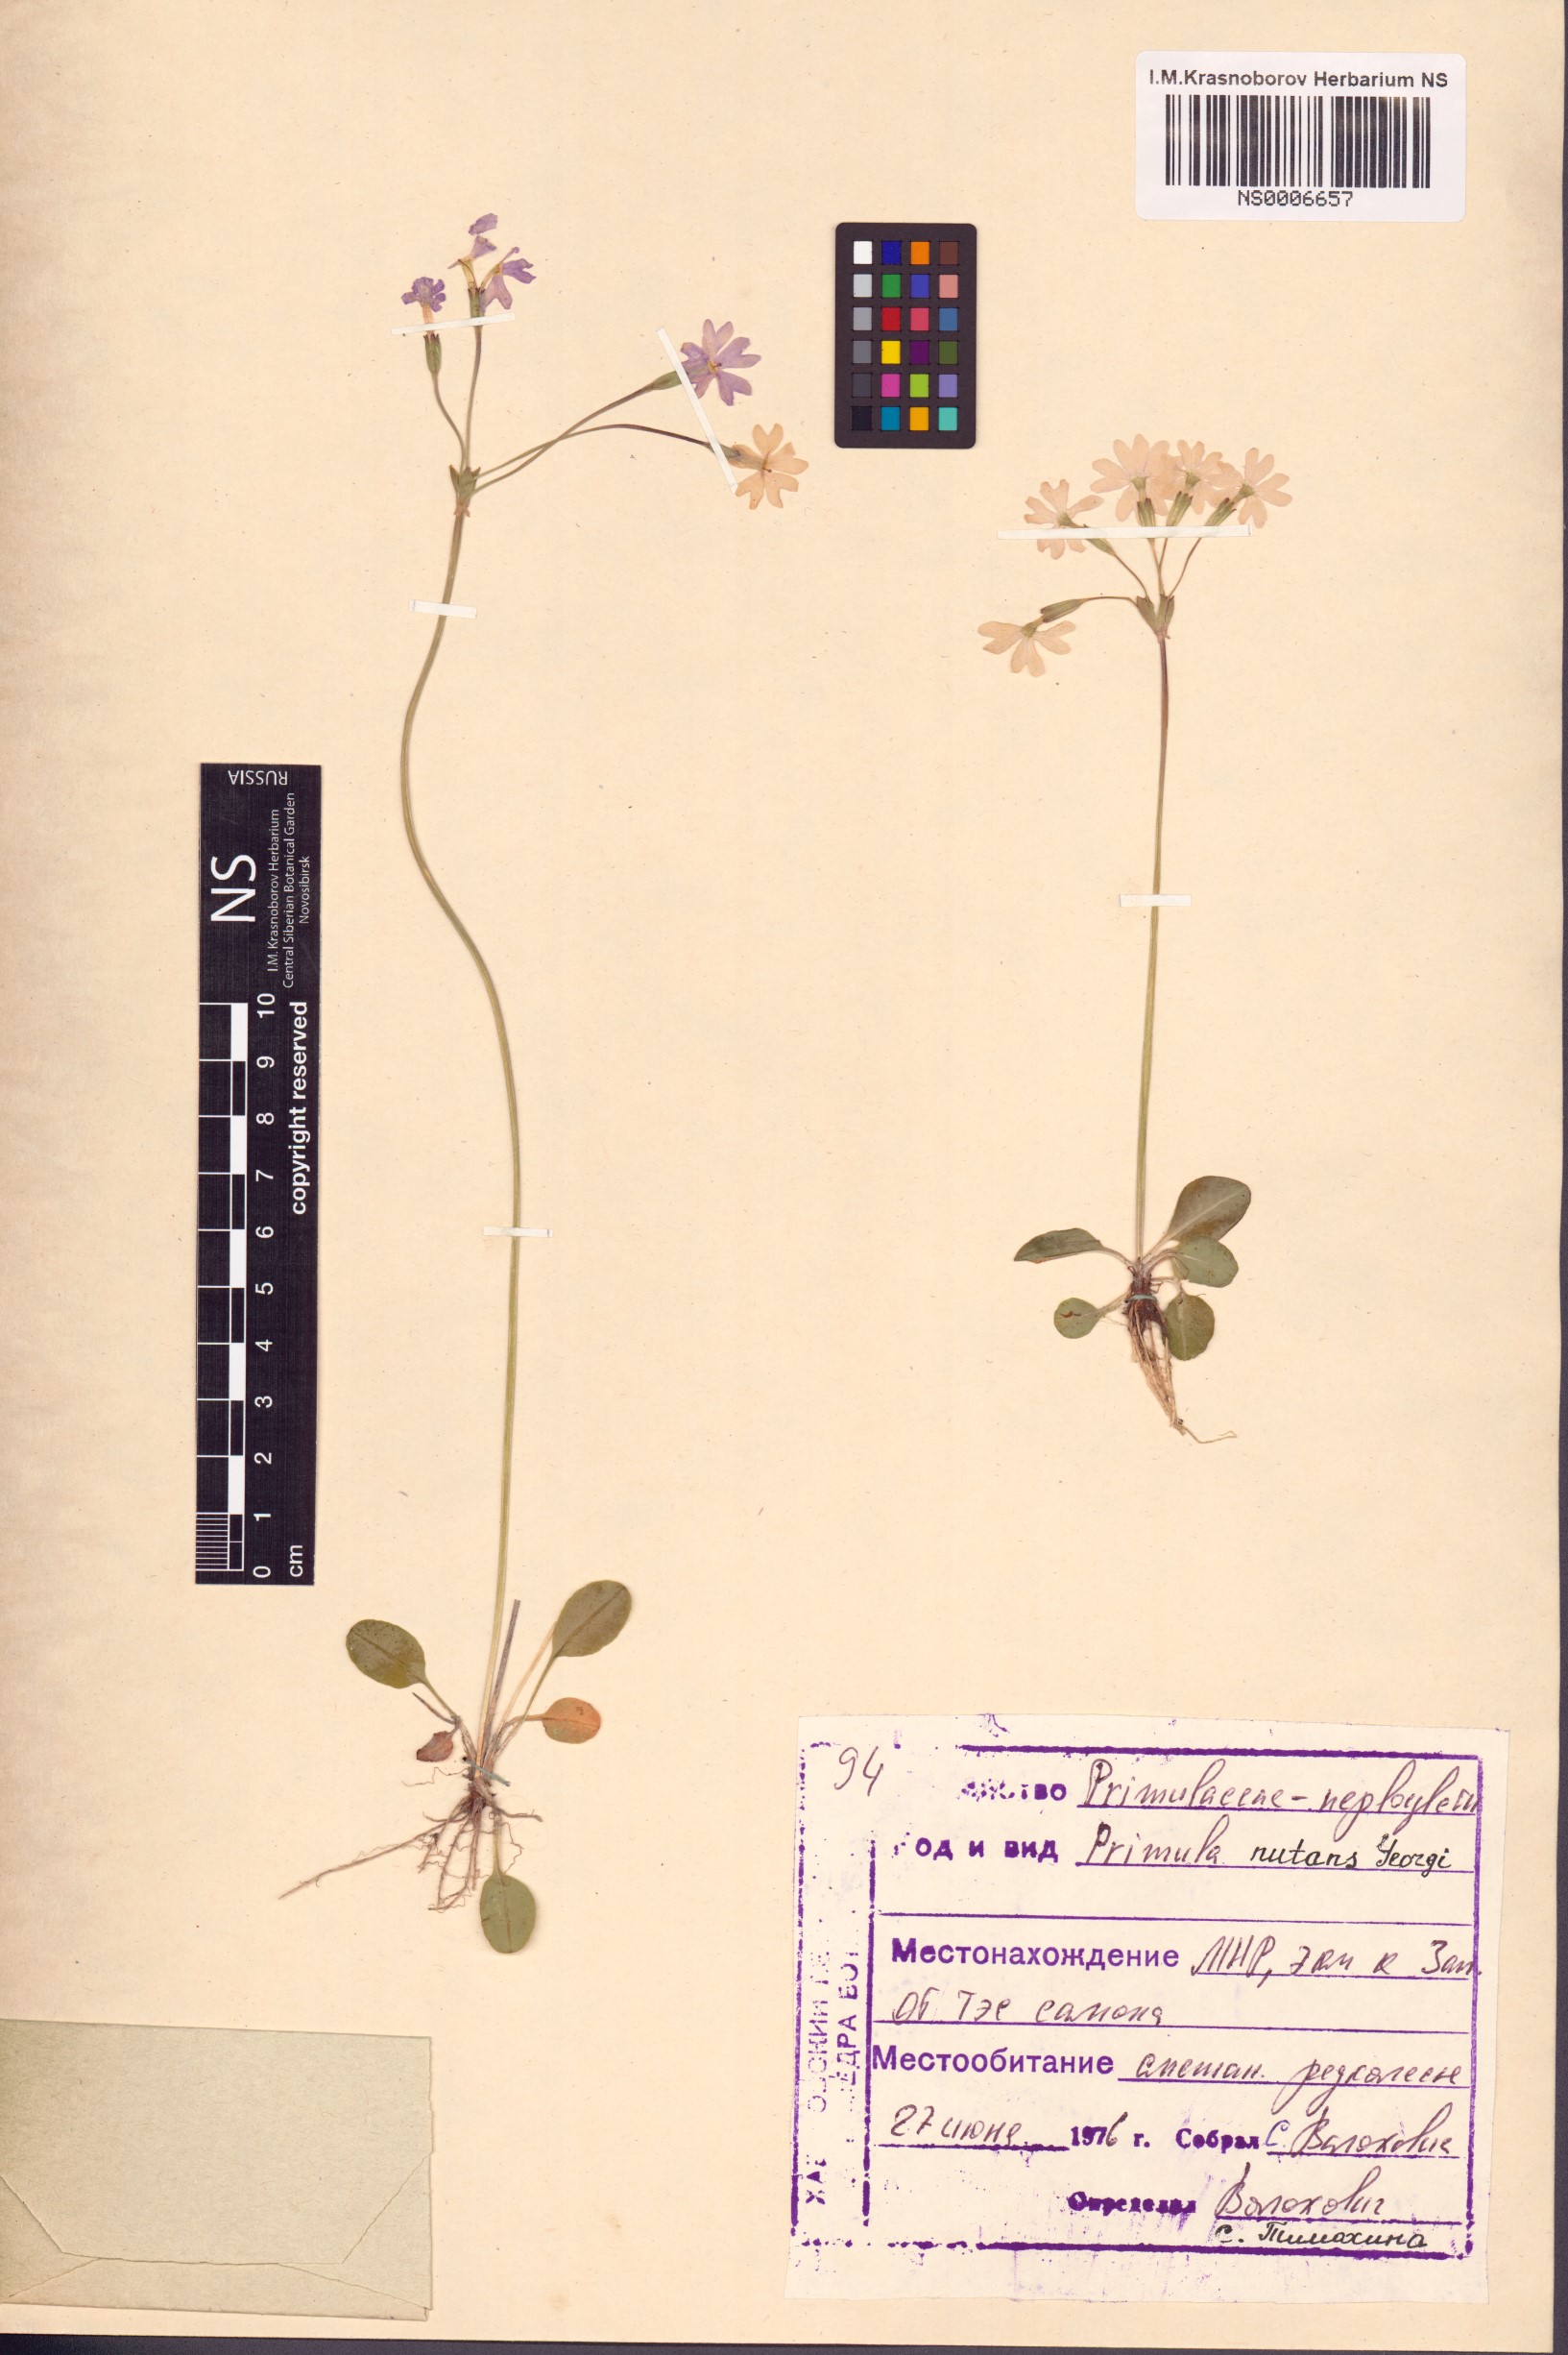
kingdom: Plantae
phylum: Tracheophyta
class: Magnoliopsida
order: Ericales
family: Primulaceae
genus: Primula
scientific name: Primula nutans
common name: Siberian primrose
